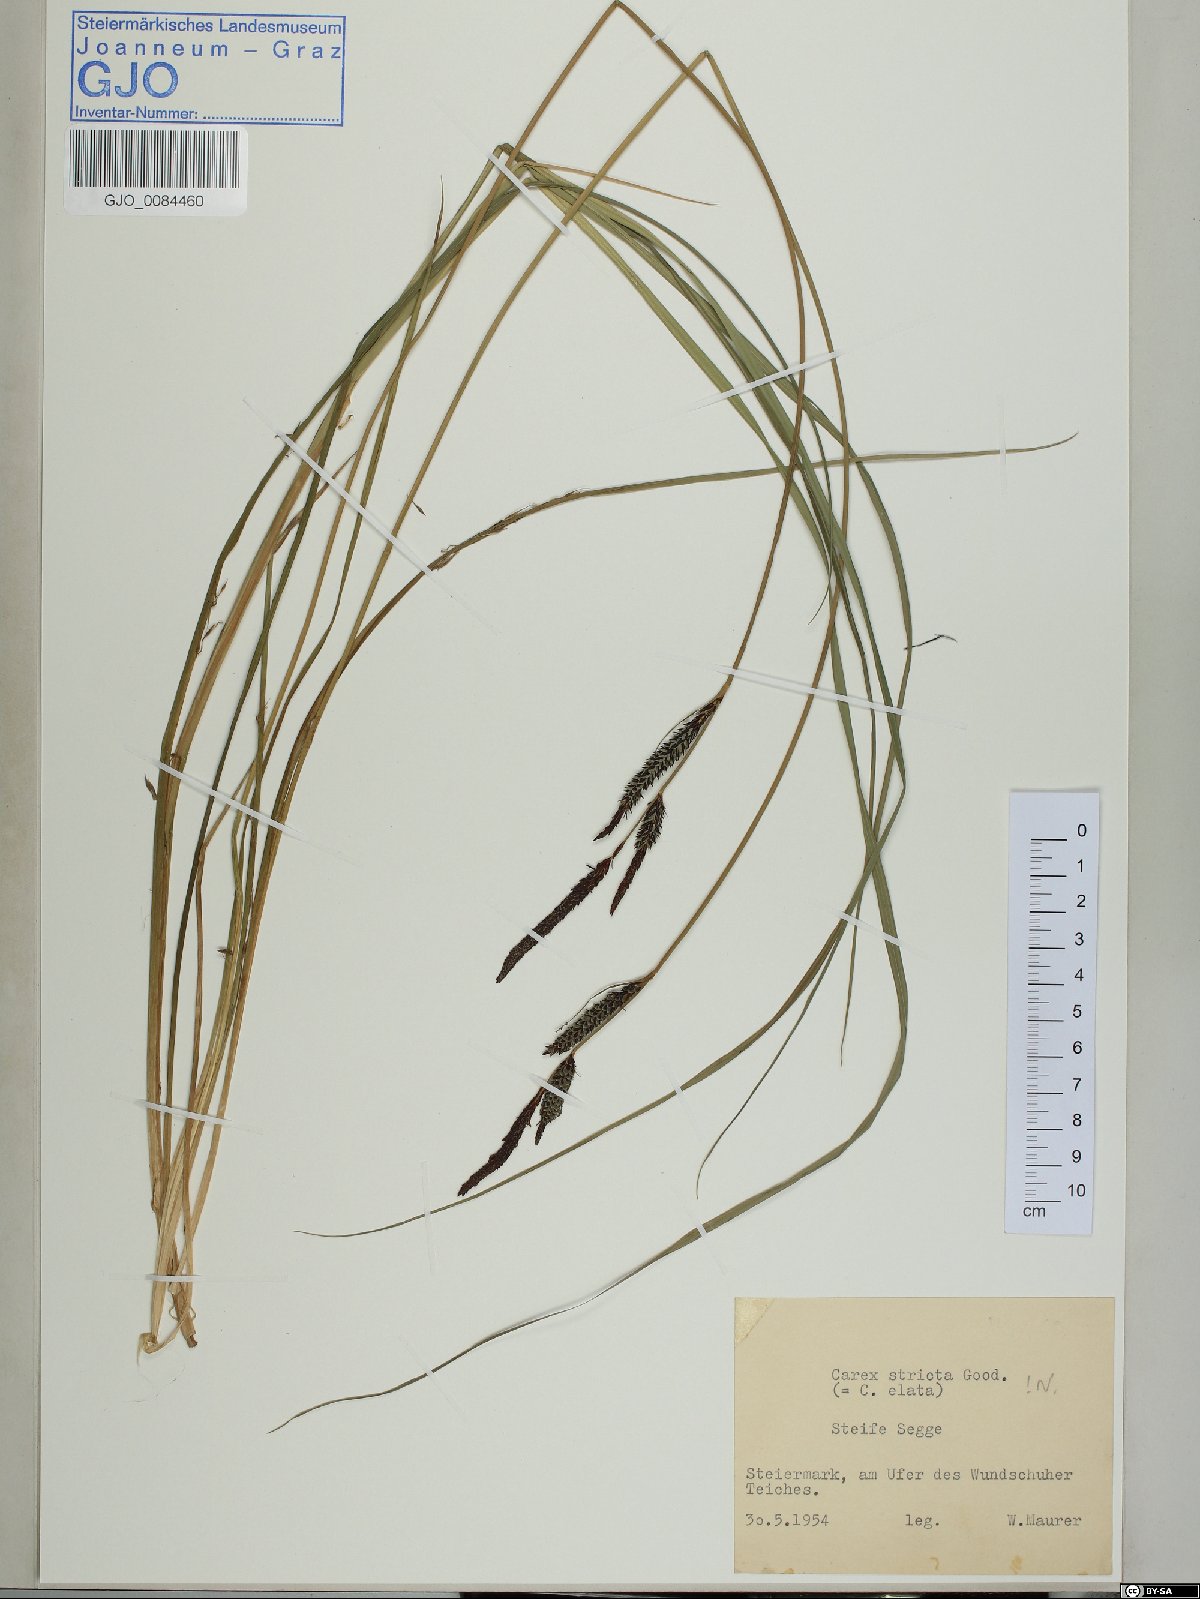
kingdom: Plantae
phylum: Tracheophyta
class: Liliopsida
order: Poales
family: Cyperaceae
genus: Carex
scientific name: Carex elata
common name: Tufted sedge
